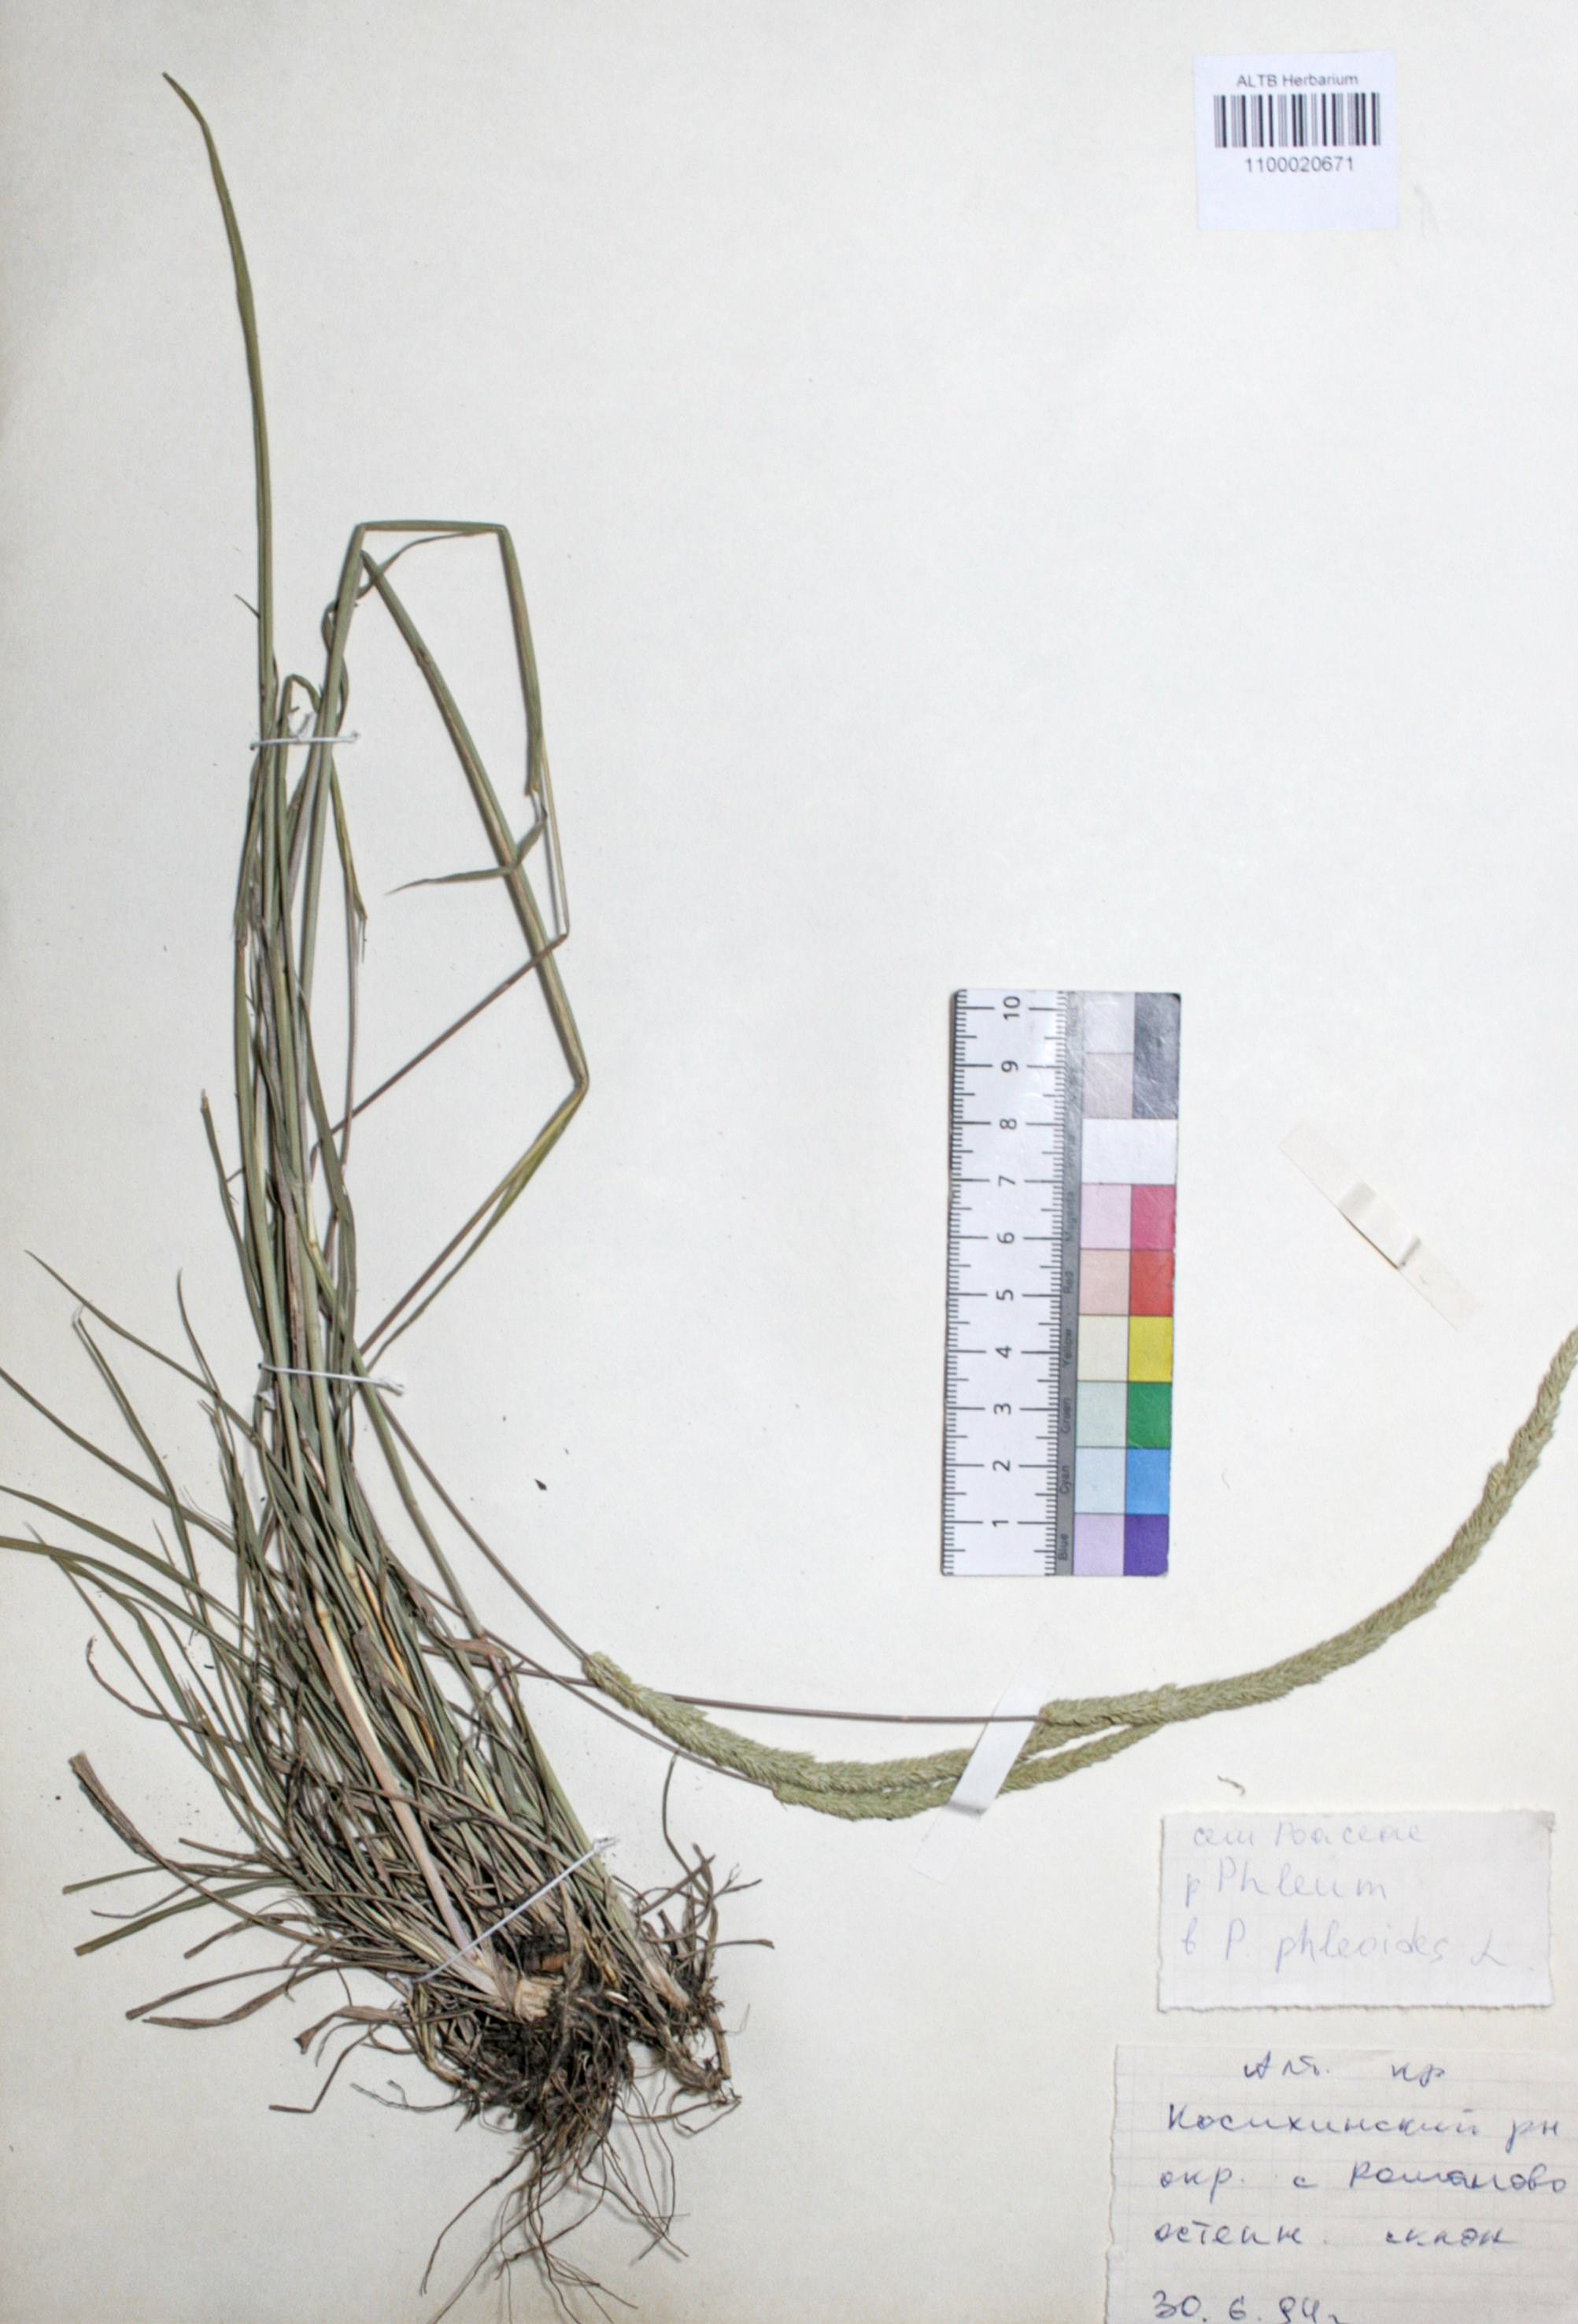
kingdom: Plantae
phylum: Tracheophyta
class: Liliopsida
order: Poales
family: Poaceae
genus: Phleum
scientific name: Phleum phleoides
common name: Purple-stem cat's-tail
